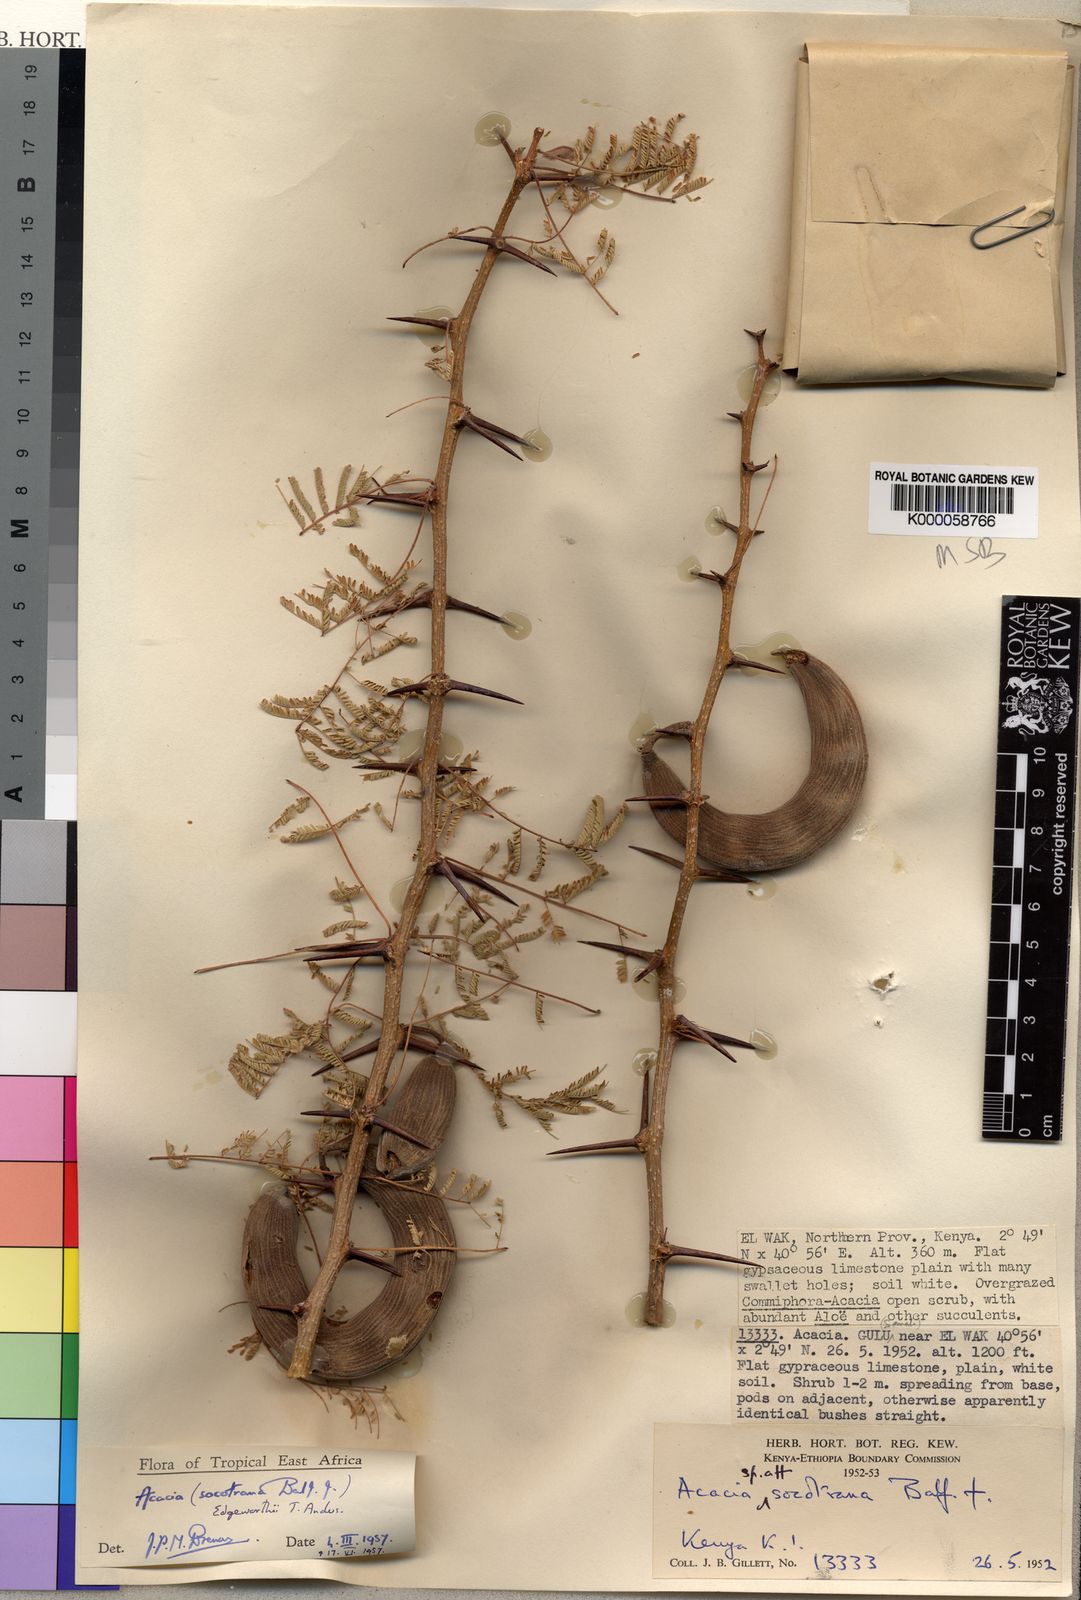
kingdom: Plantae
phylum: Tracheophyta
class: Magnoliopsida
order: Fabales
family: Fabaceae
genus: Vachellia
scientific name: Vachellia edgeworthii
